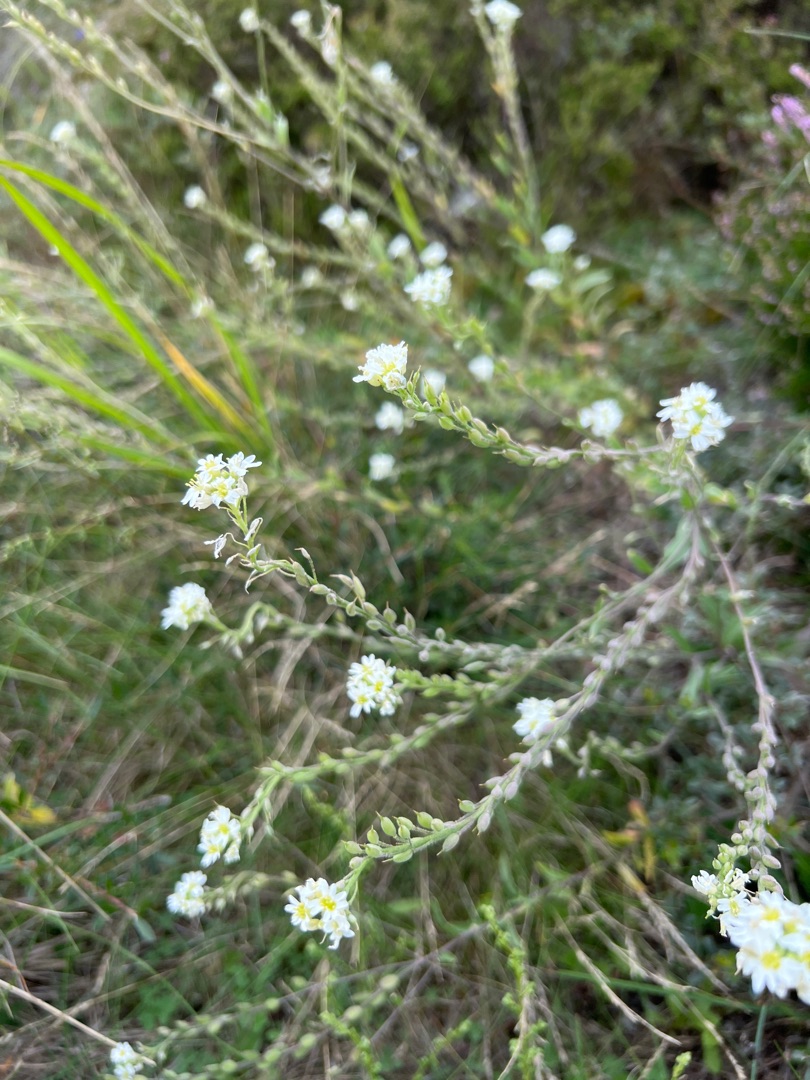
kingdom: Plantae
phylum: Tracheophyta
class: Magnoliopsida
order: Brassicales
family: Brassicaceae
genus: Berteroa
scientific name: Berteroa incana
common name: Kløvplade
